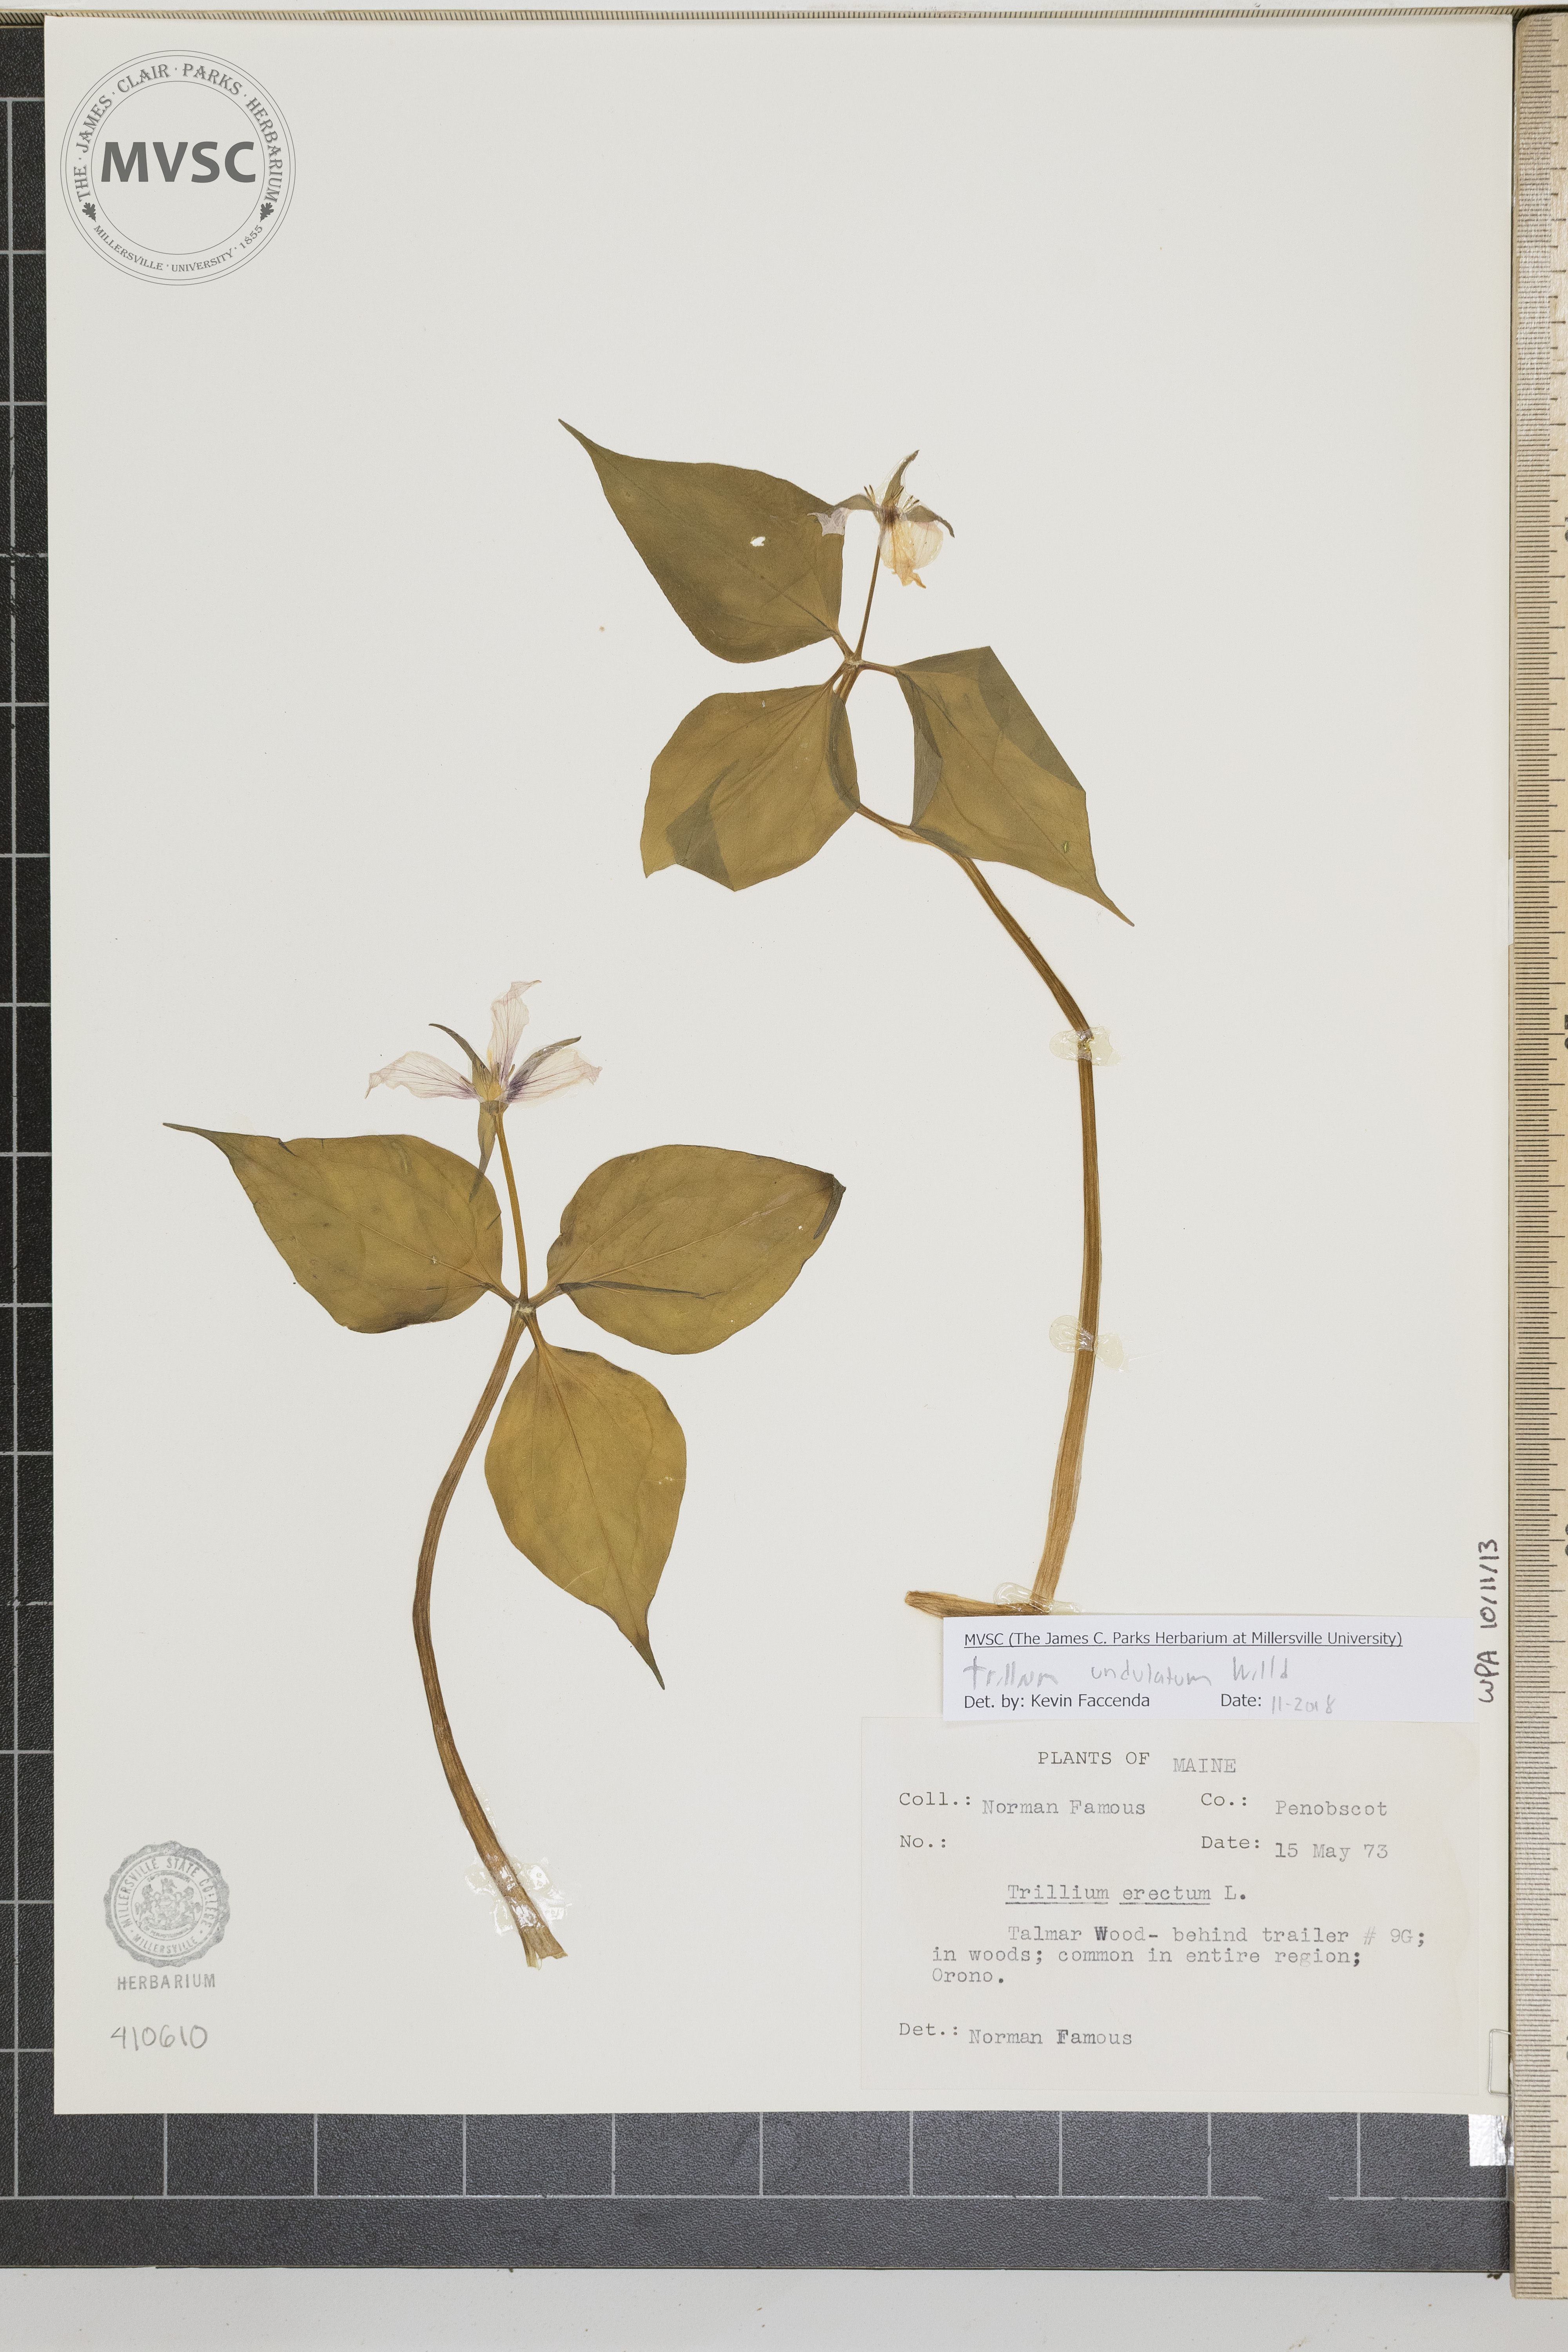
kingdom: Plantae
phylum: Tracheophyta
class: Liliopsida
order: Liliales
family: Melanthiaceae
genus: Trillium
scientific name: Trillium undulatum
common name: Paint trillium
